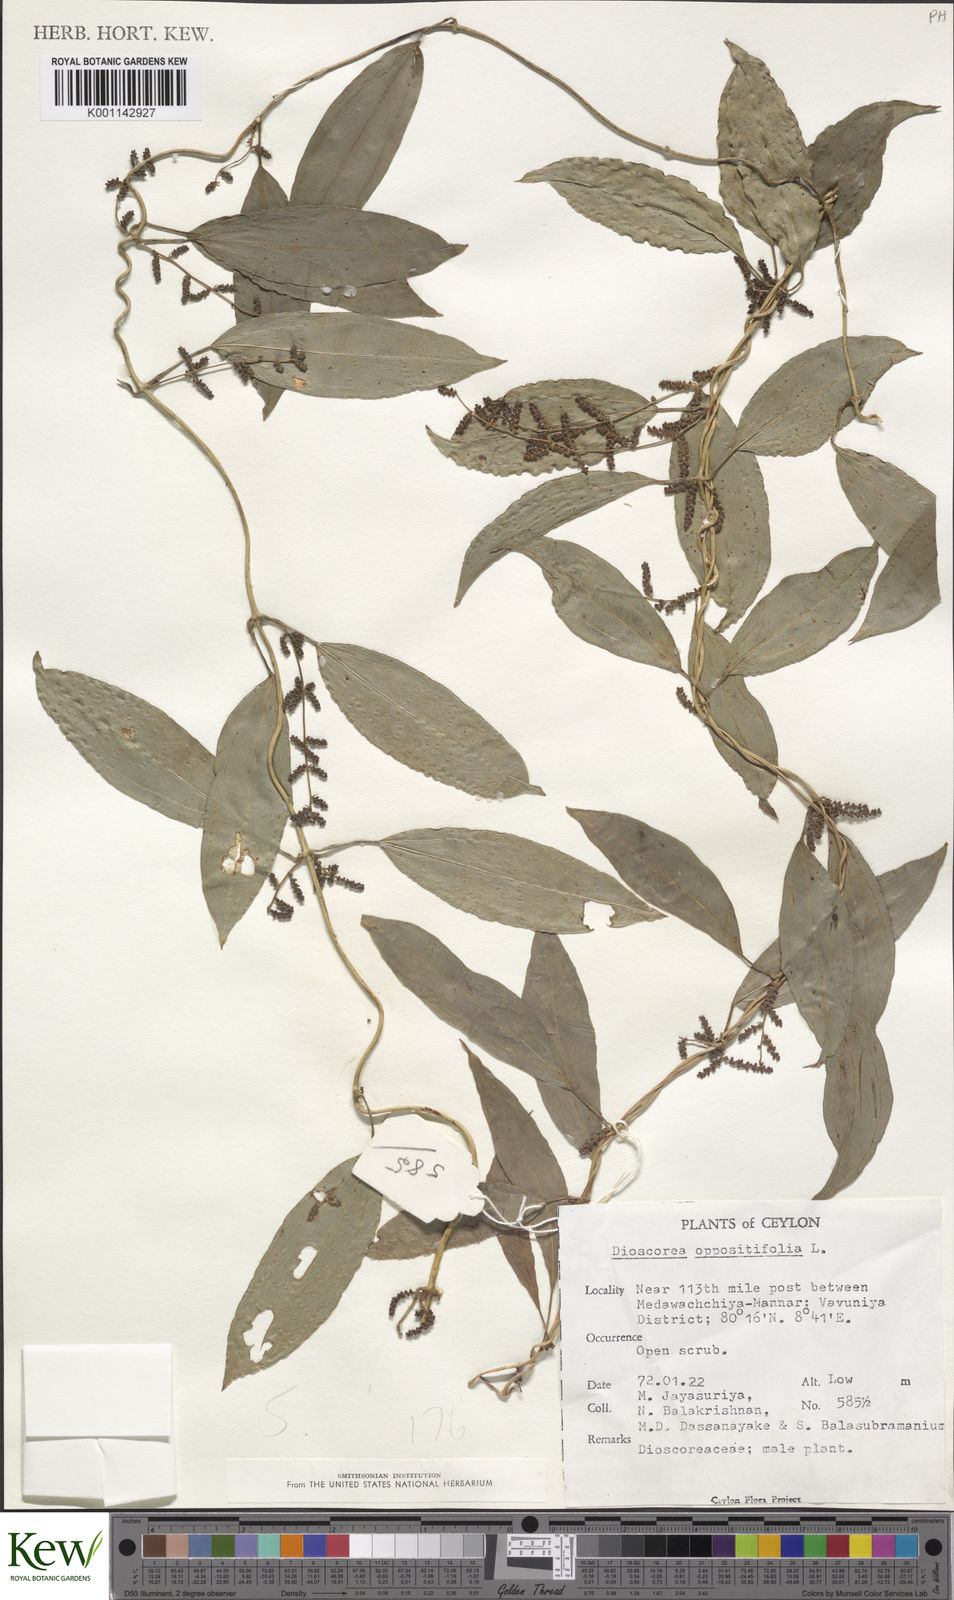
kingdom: Plantae
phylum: Tracheophyta
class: Liliopsida
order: Dioscoreales
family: Dioscoreaceae
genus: Dioscorea
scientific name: Dioscorea oppositifolia
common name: Chinese yam
